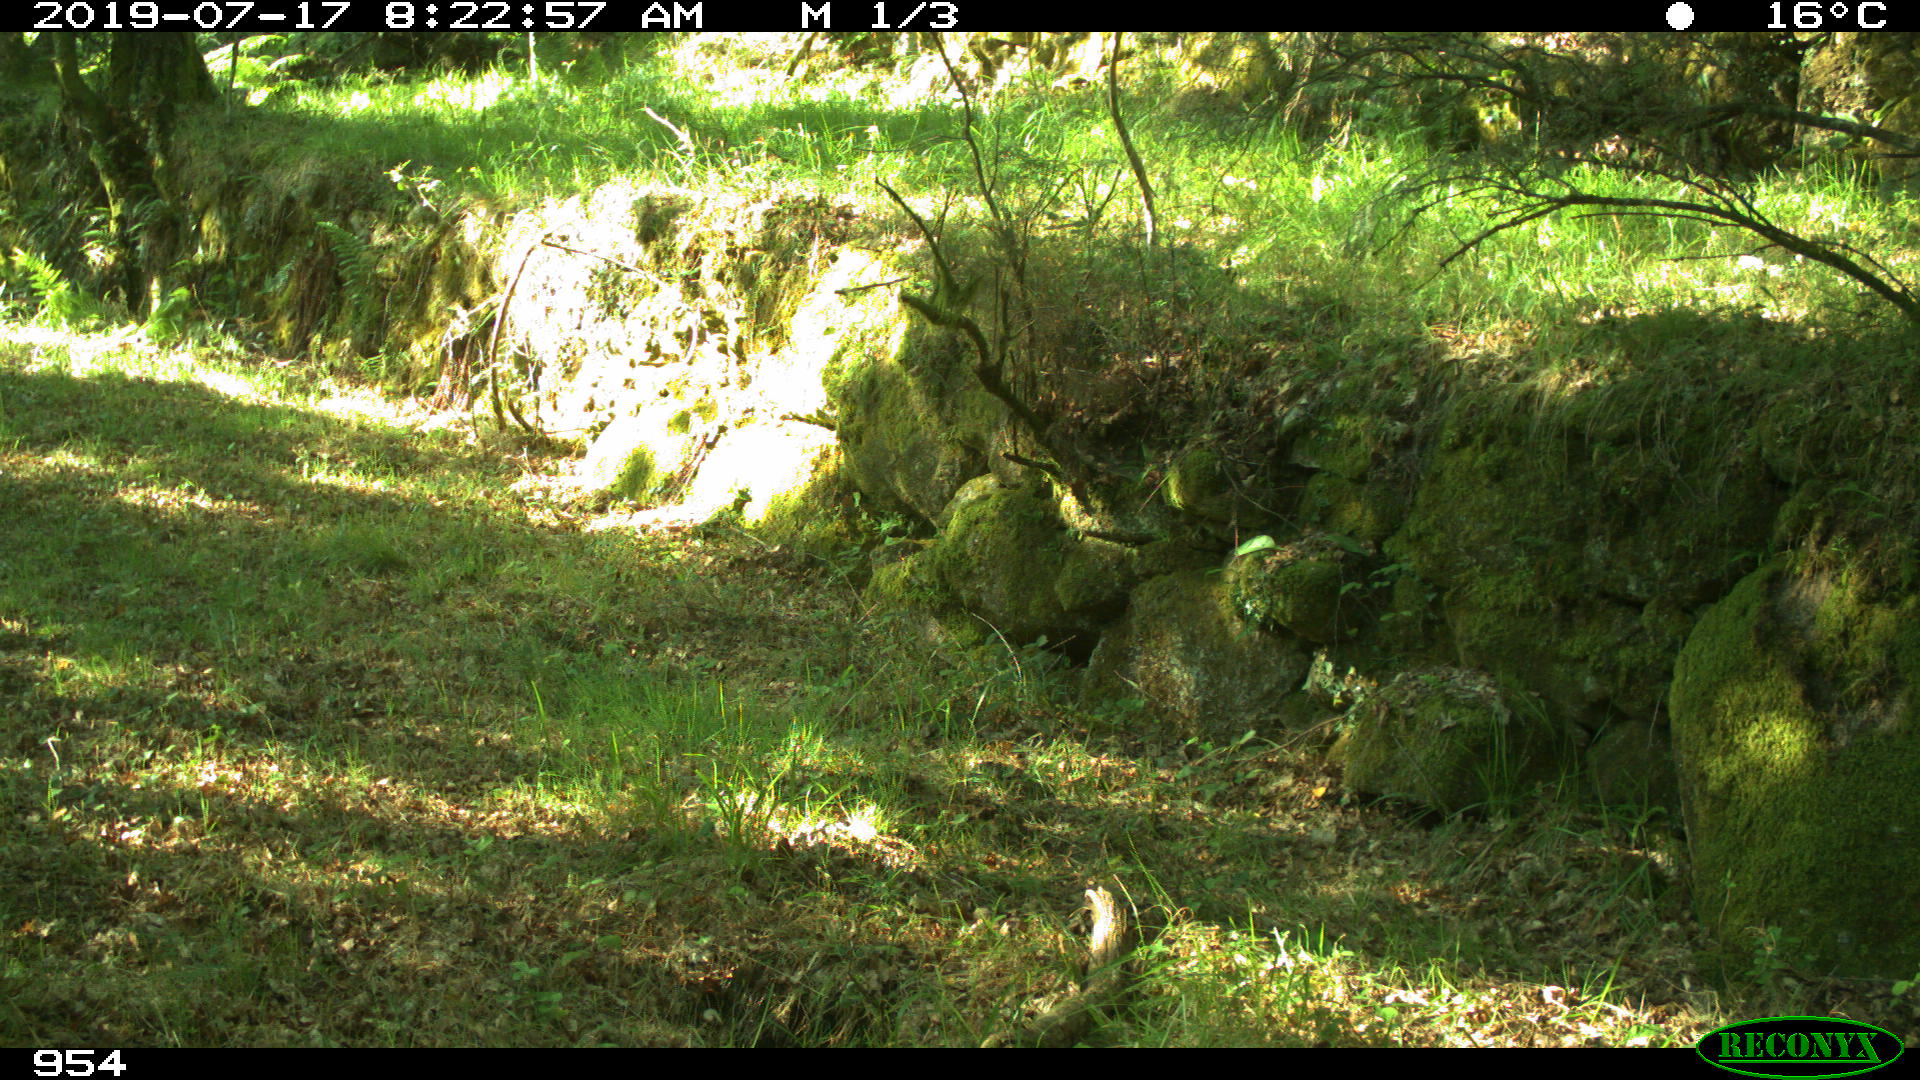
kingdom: Animalia
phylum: Chordata
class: Mammalia
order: Artiodactyla
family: Suidae
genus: Sus
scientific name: Sus scrofa
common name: Wild boar
